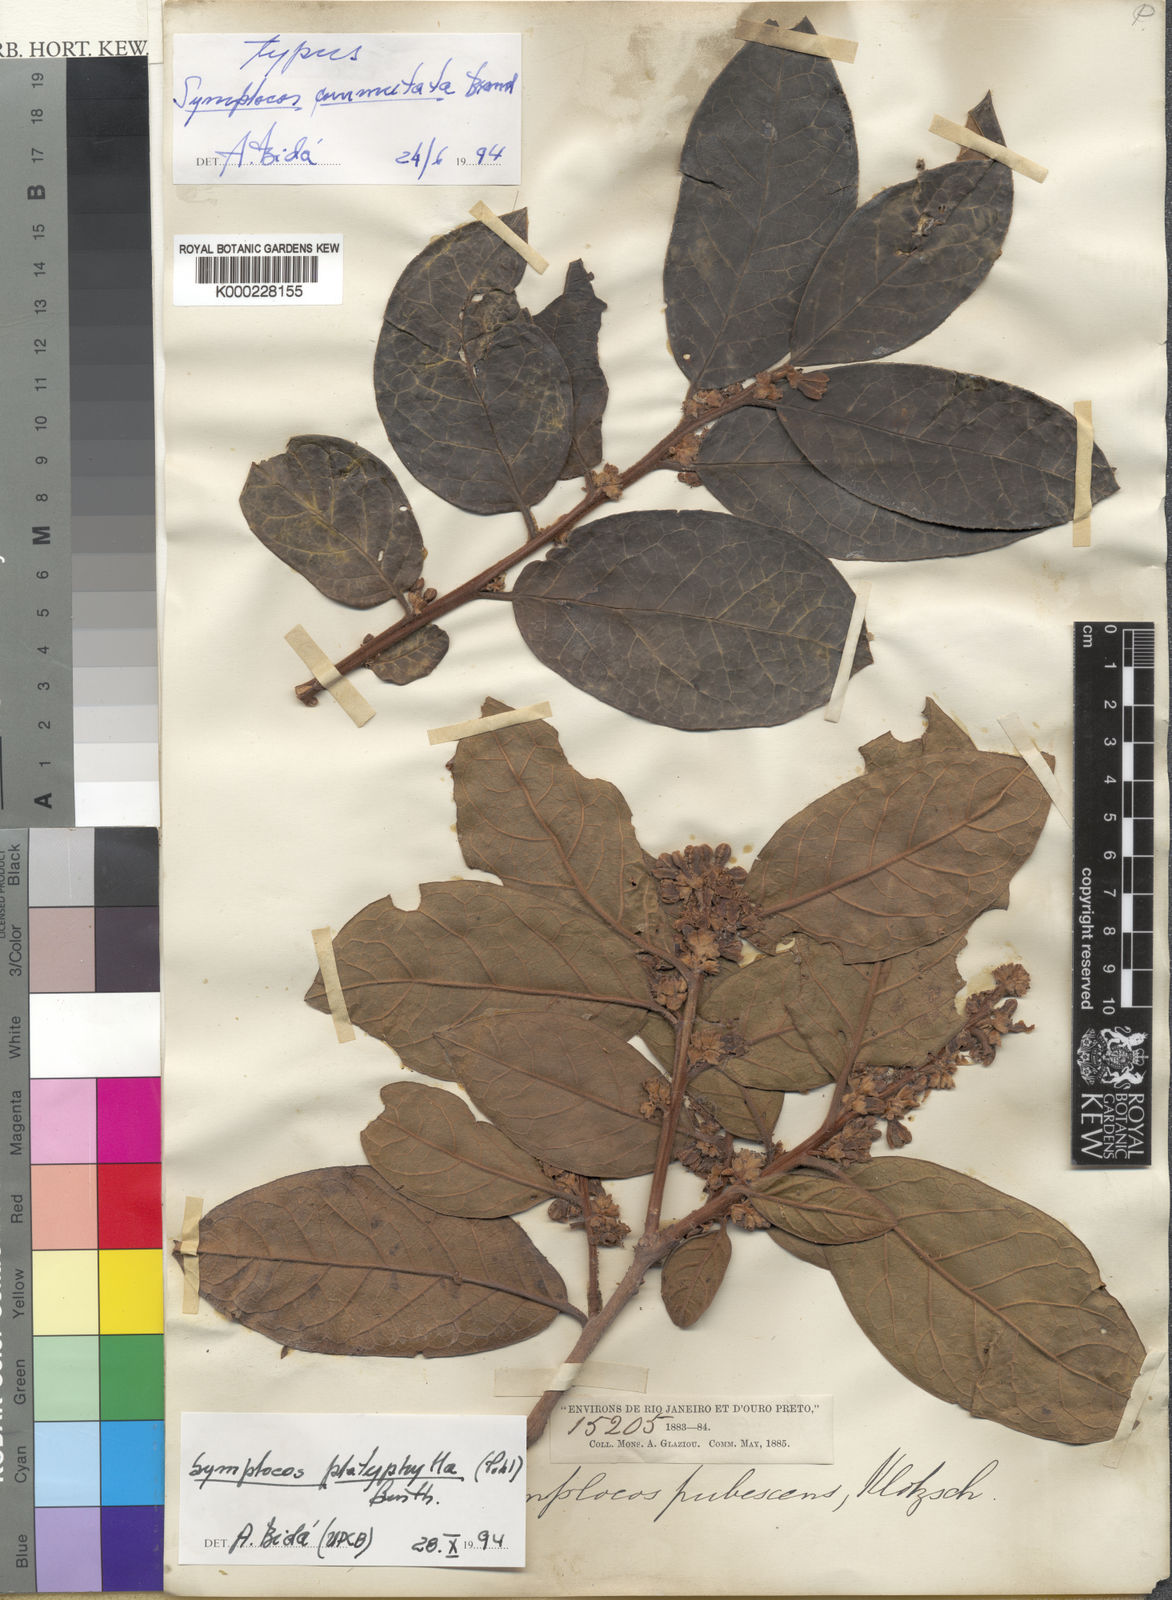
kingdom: Plantae
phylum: Tracheophyta
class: Magnoliopsida
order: Ericales
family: Symplocaceae
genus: Symplocos
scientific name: Symplocos platyphylla
